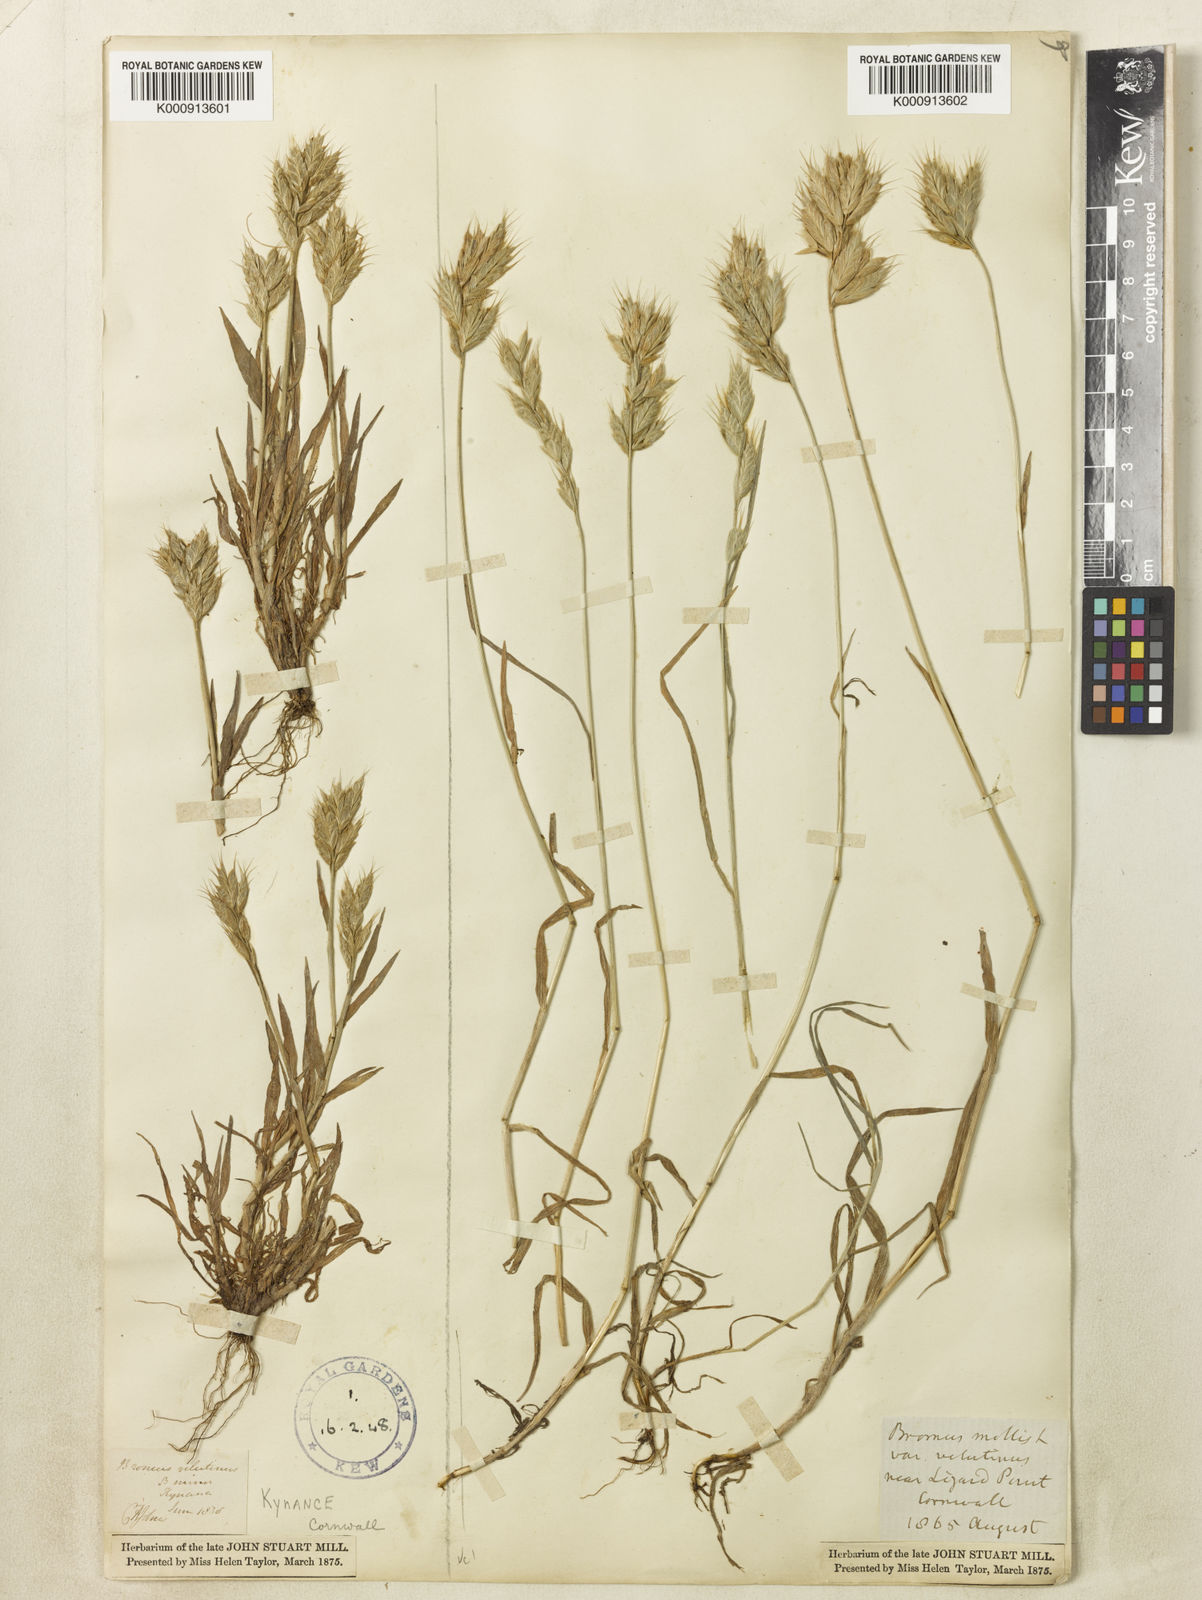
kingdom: Plantae
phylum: Tracheophyta
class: Liliopsida
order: Poales
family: Poaceae
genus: Bromus
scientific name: Bromus hordeaceus
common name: Soft brome
